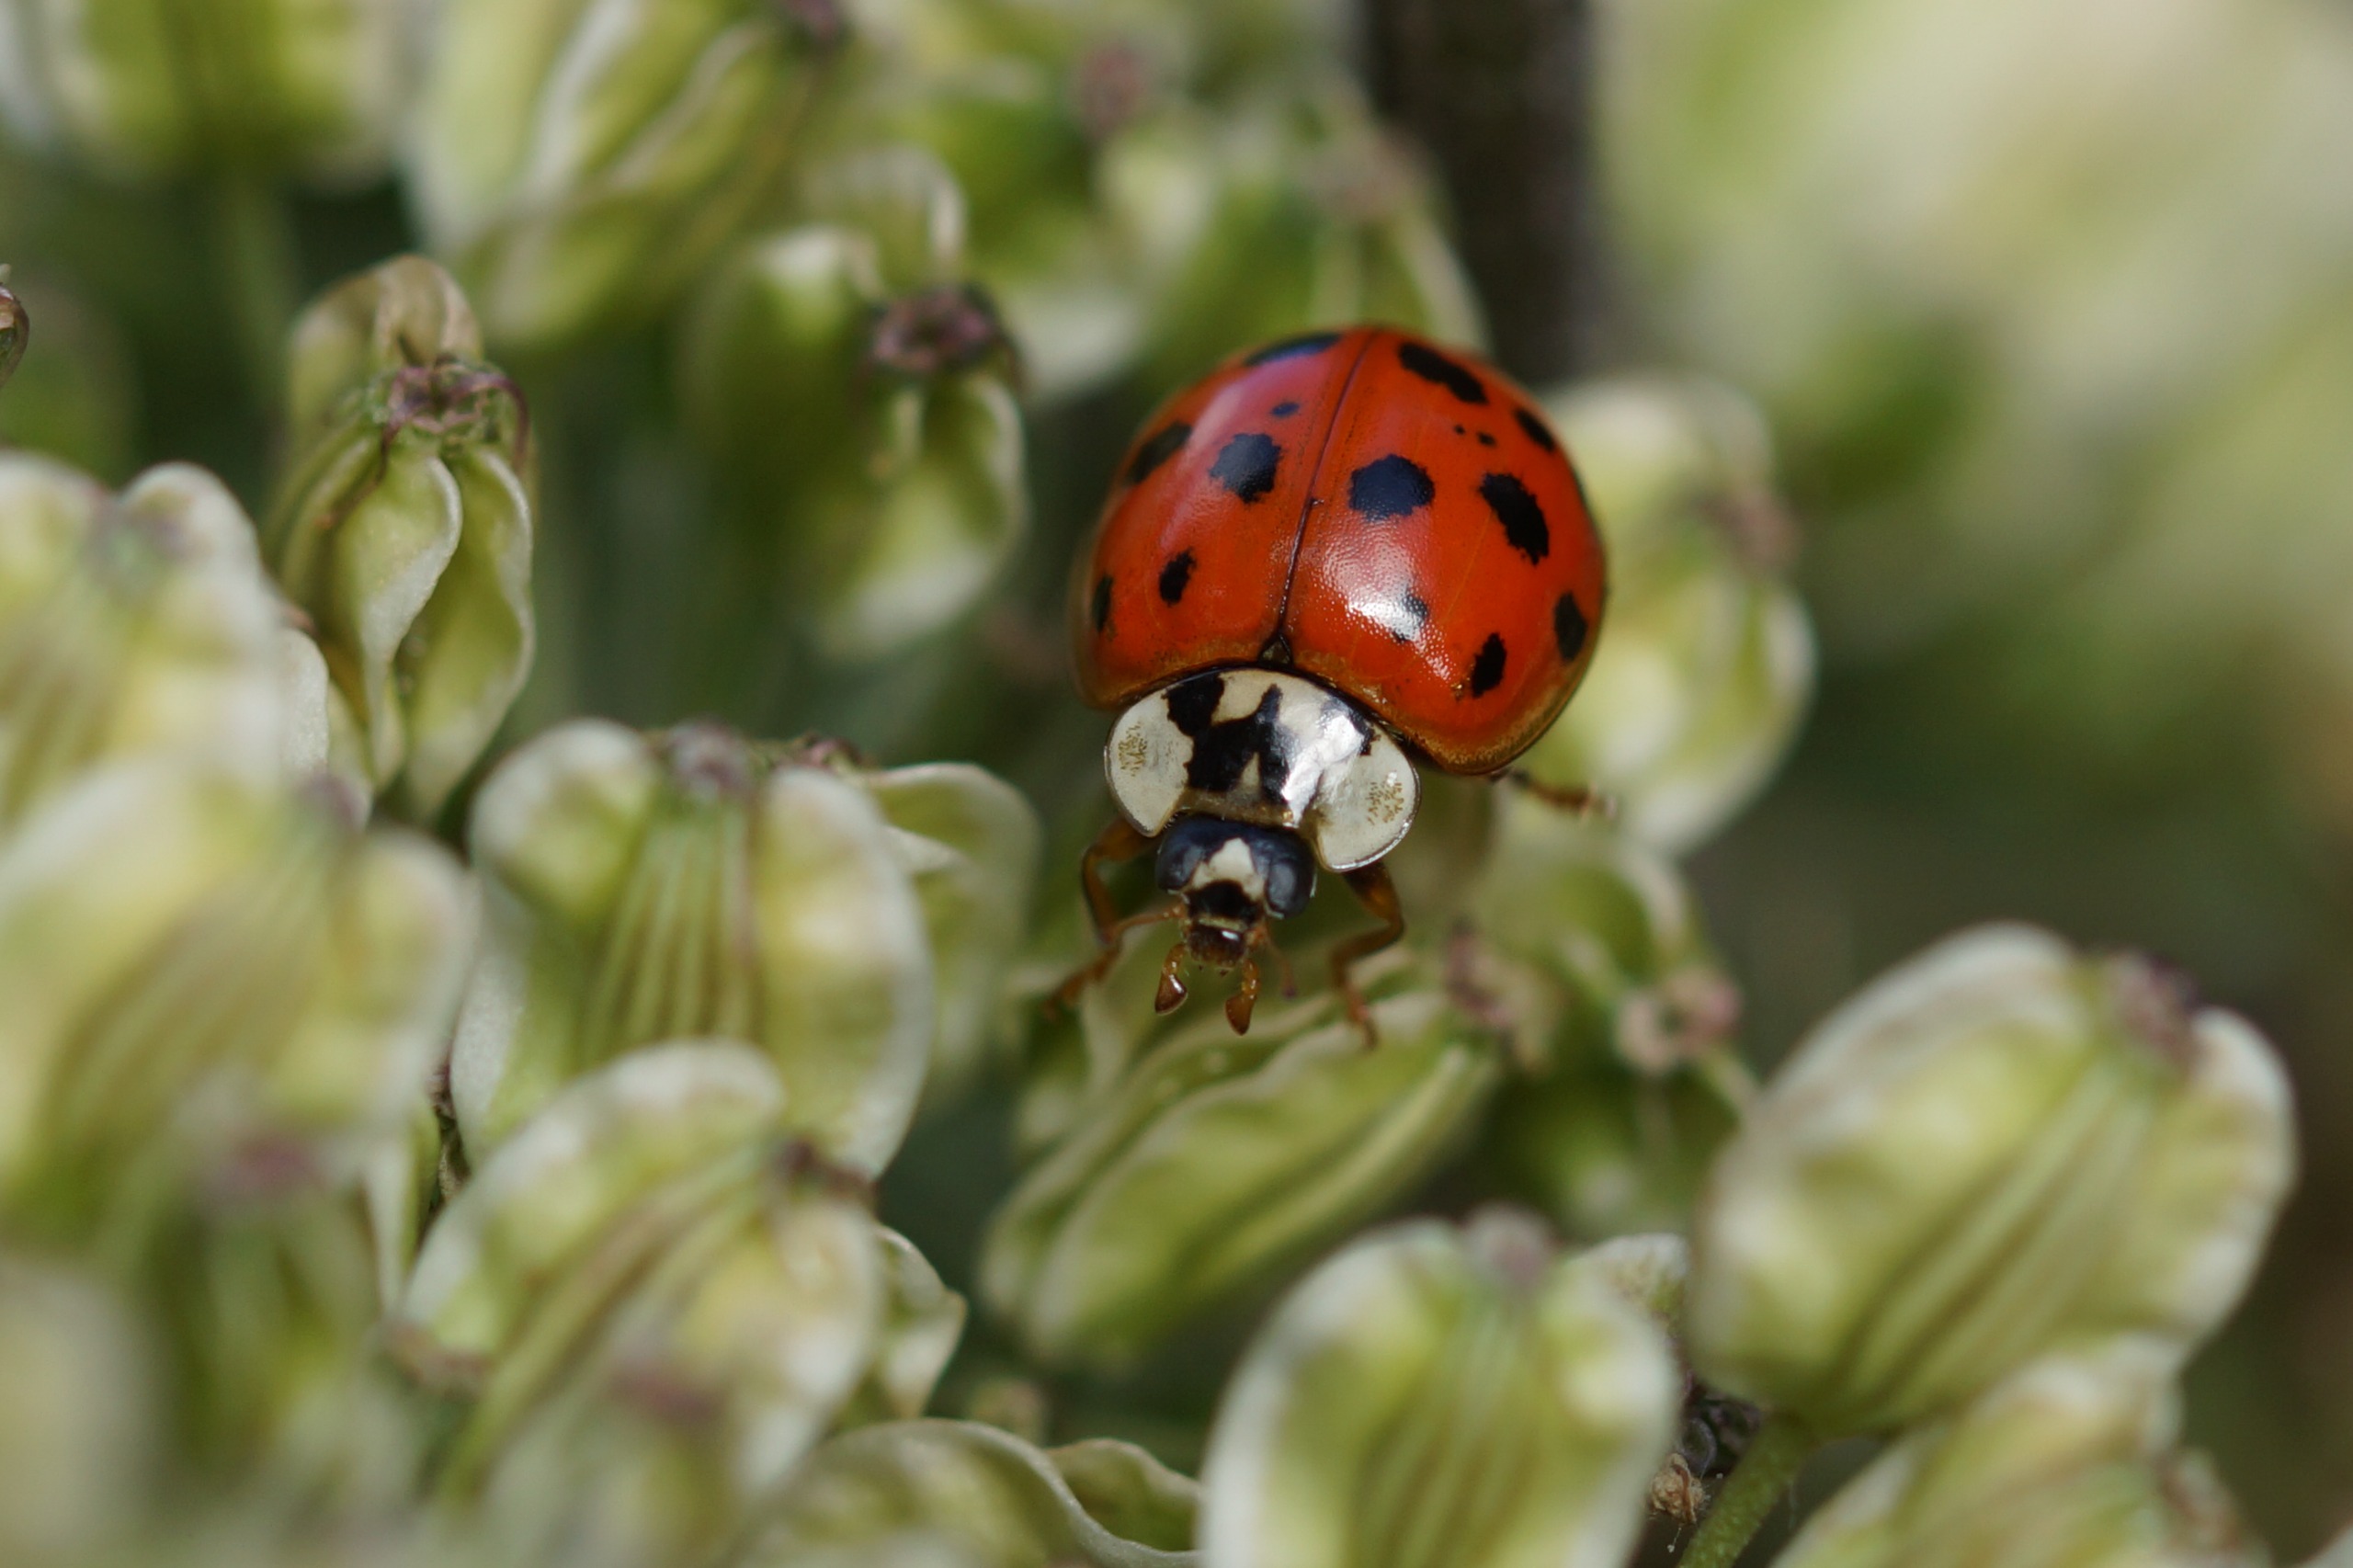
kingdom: Animalia
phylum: Arthropoda
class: Insecta
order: Coleoptera
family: Coccinellidae
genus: Harmonia
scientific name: Harmonia axyridis
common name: Harlekinmariehøne
